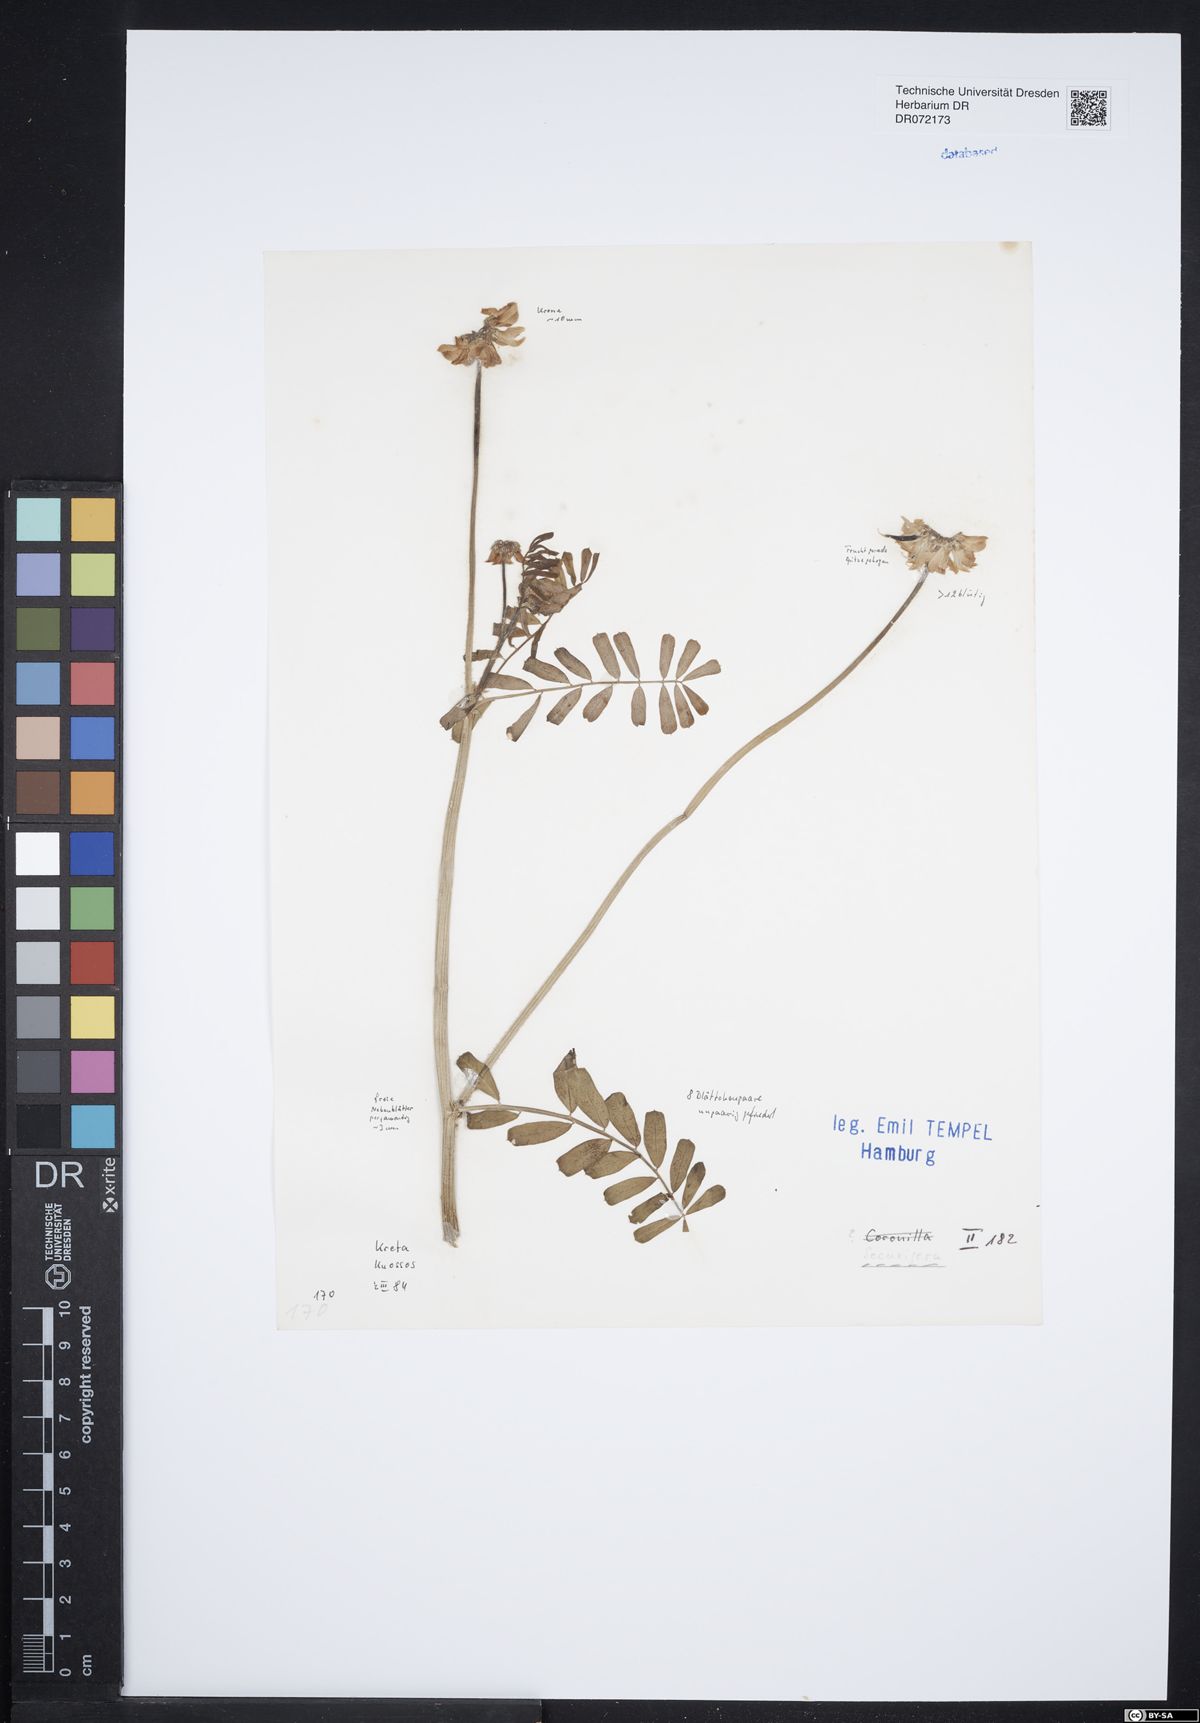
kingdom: Animalia
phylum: Arthropoda
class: Insecta
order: Orthoptera
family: Romaleidae
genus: Securigera
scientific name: Securigera
